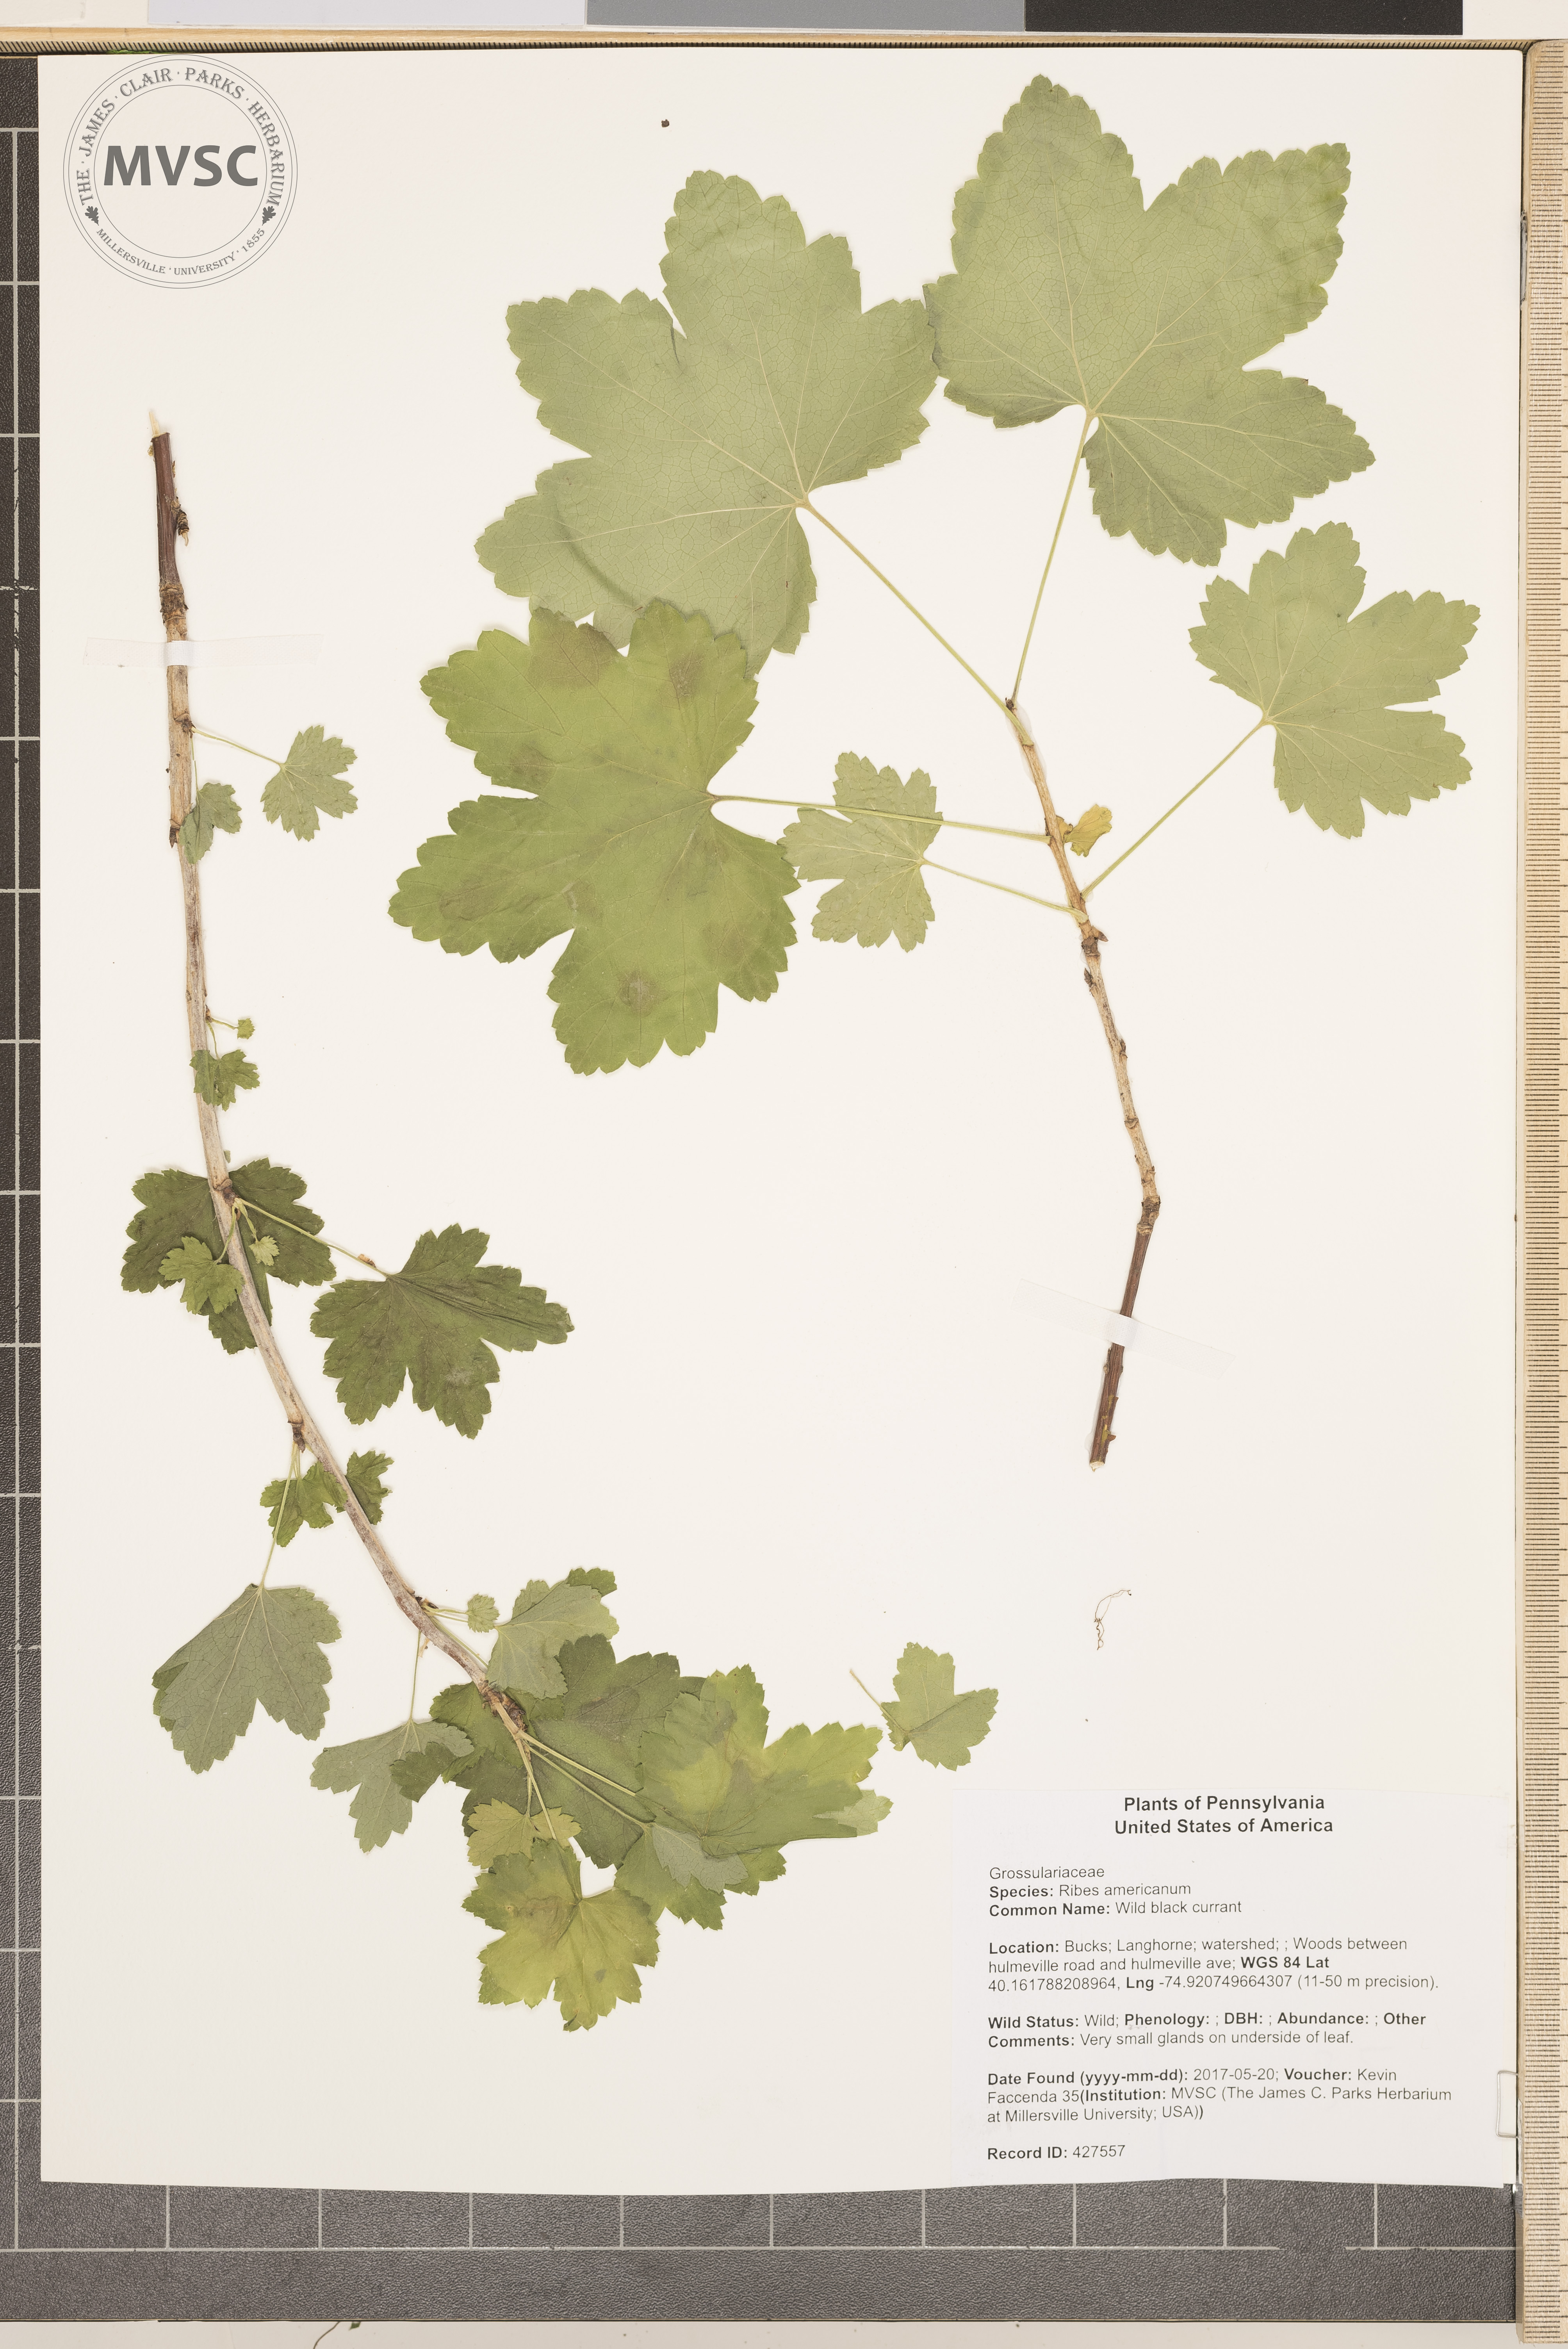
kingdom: Plantae
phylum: Tracheophyta
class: Magnoliopsida
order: Saxifragales
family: Grossulariaceae
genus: Ribes
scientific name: Ribes americanum
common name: Wild black currant
